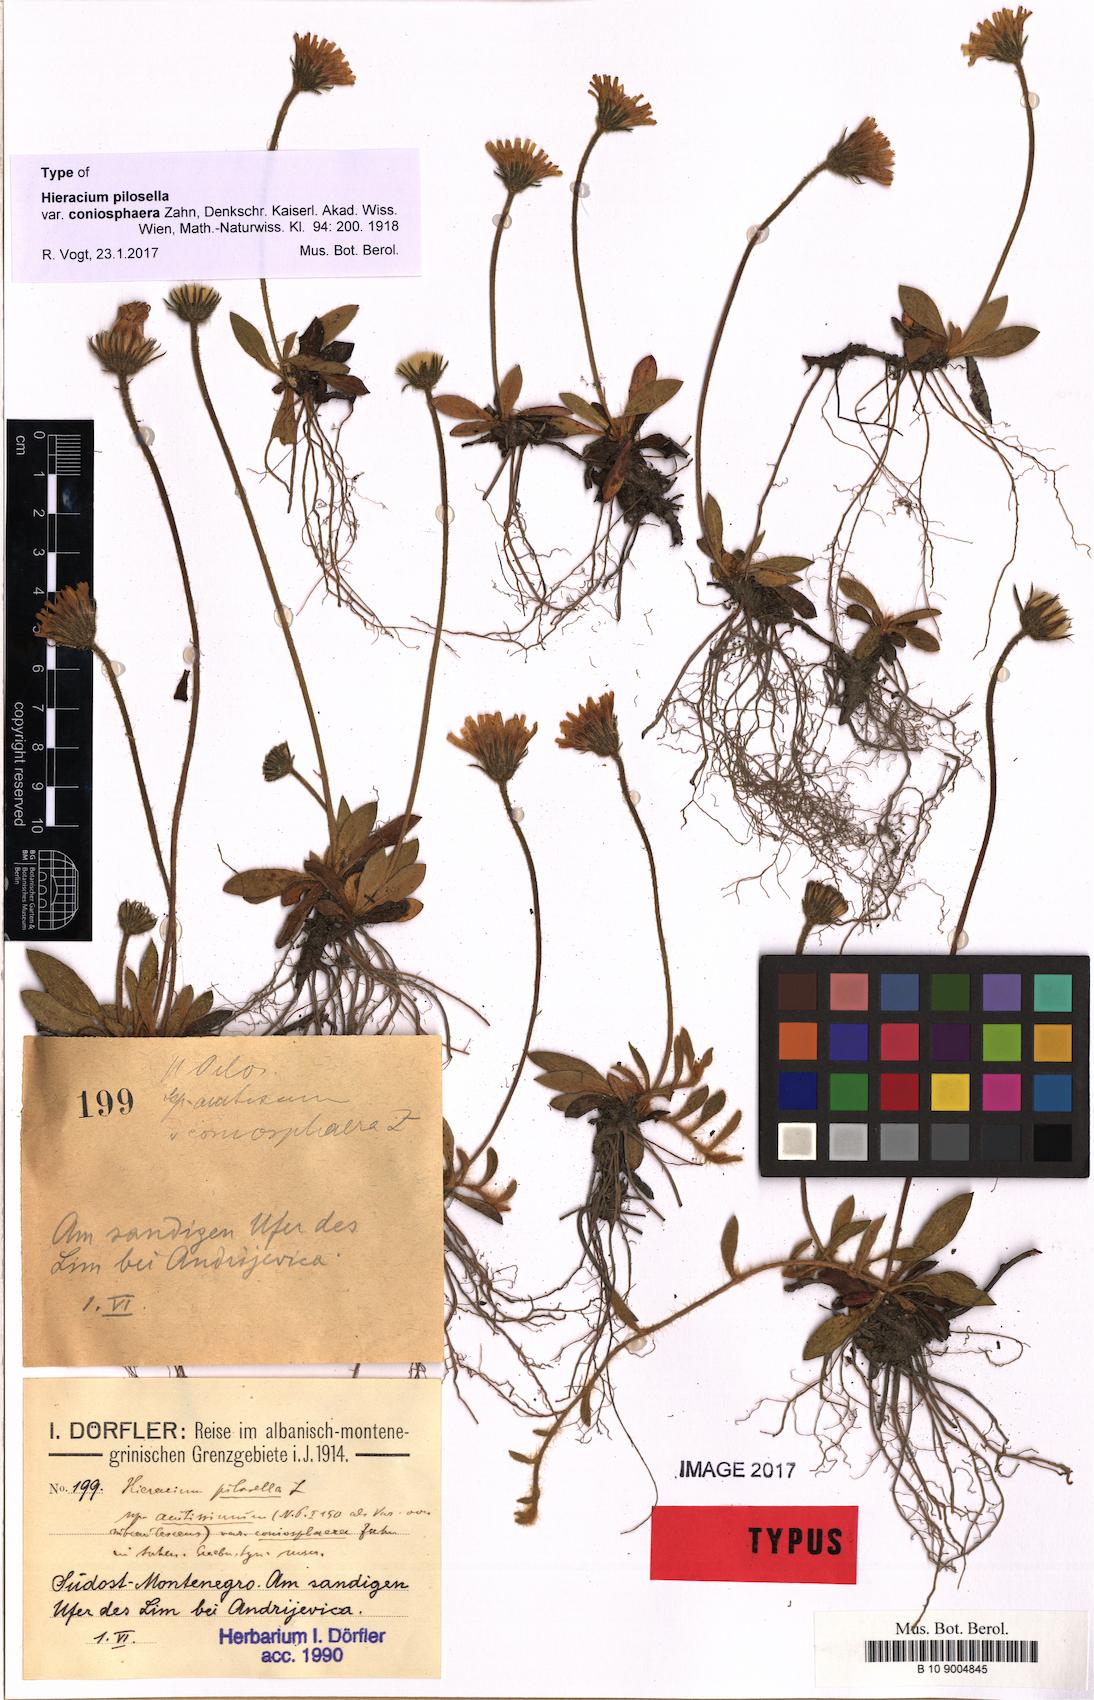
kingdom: Plantae
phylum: Tracheophyta
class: Magnoliopsida
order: Asterales
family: Asteraceae
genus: Pilosella
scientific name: Pilosella officinarum
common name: Mouse-ear hawkweed
